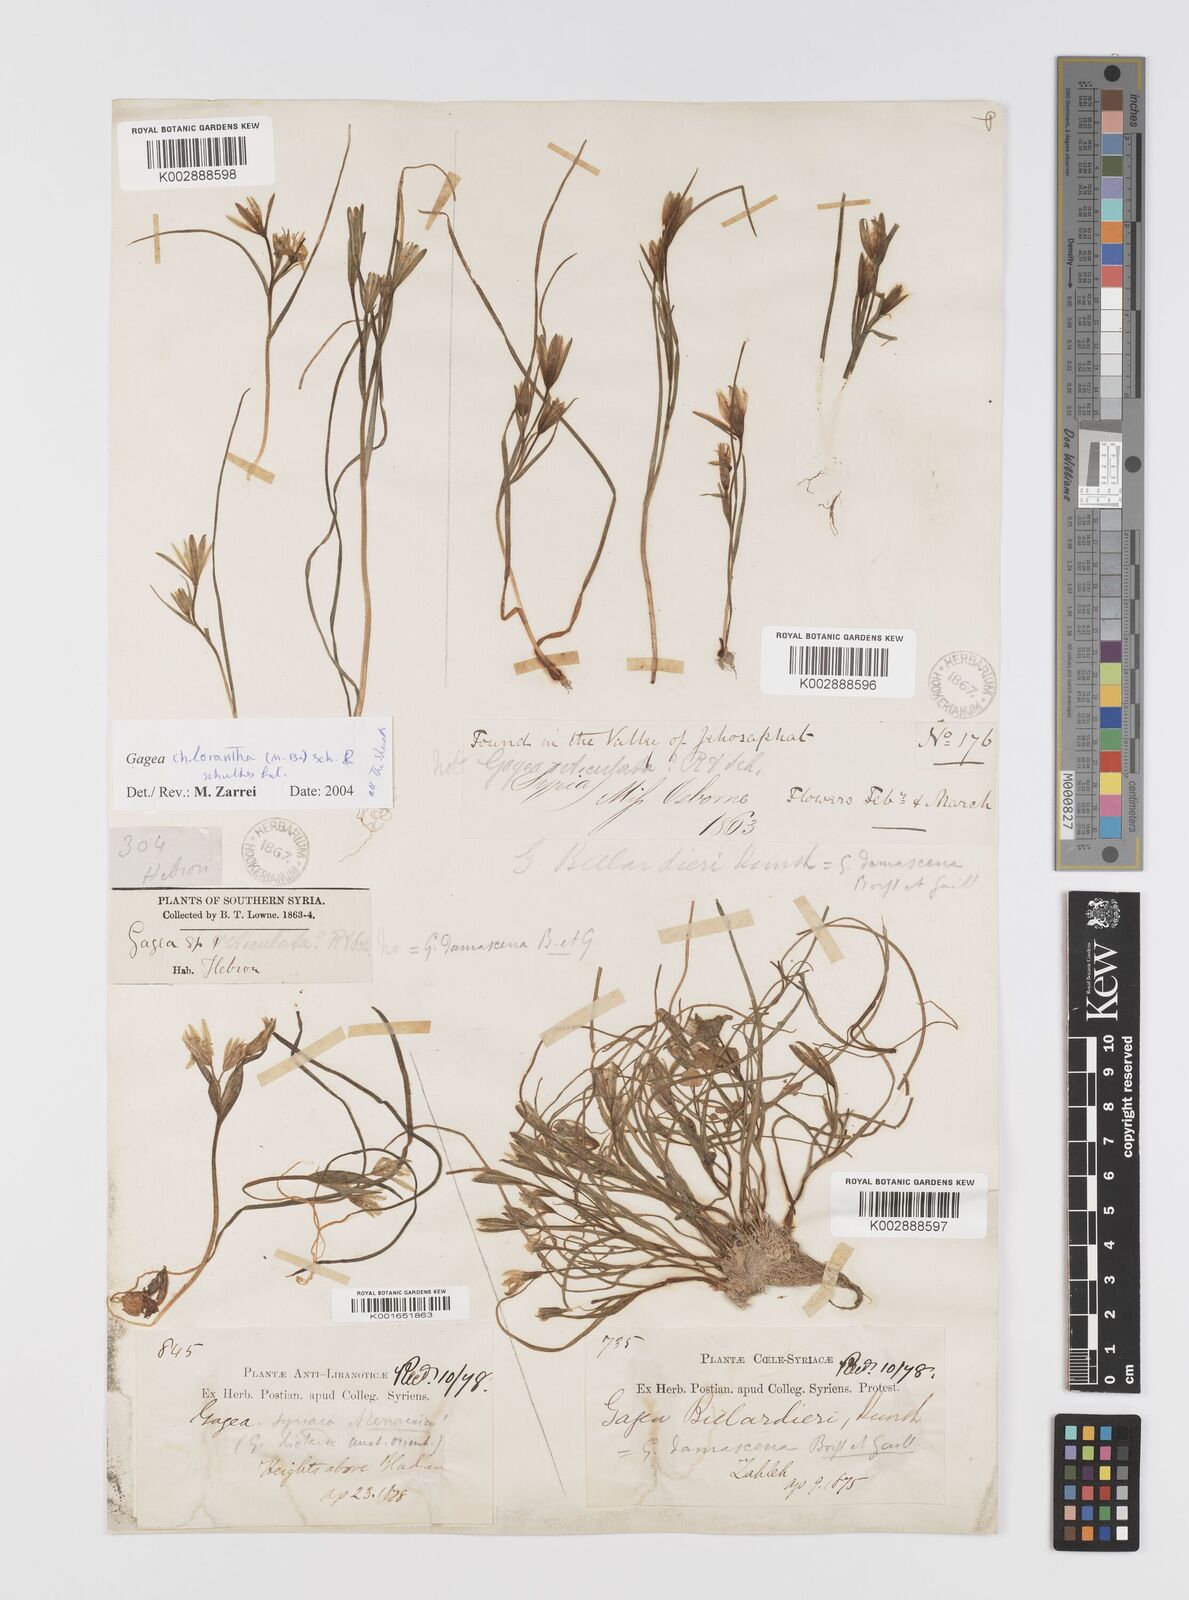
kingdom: Plantae
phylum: Tracheophyta
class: Liliopsida
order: Liliales
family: Liliaceae
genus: Gagea
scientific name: Gagea chlorantha
